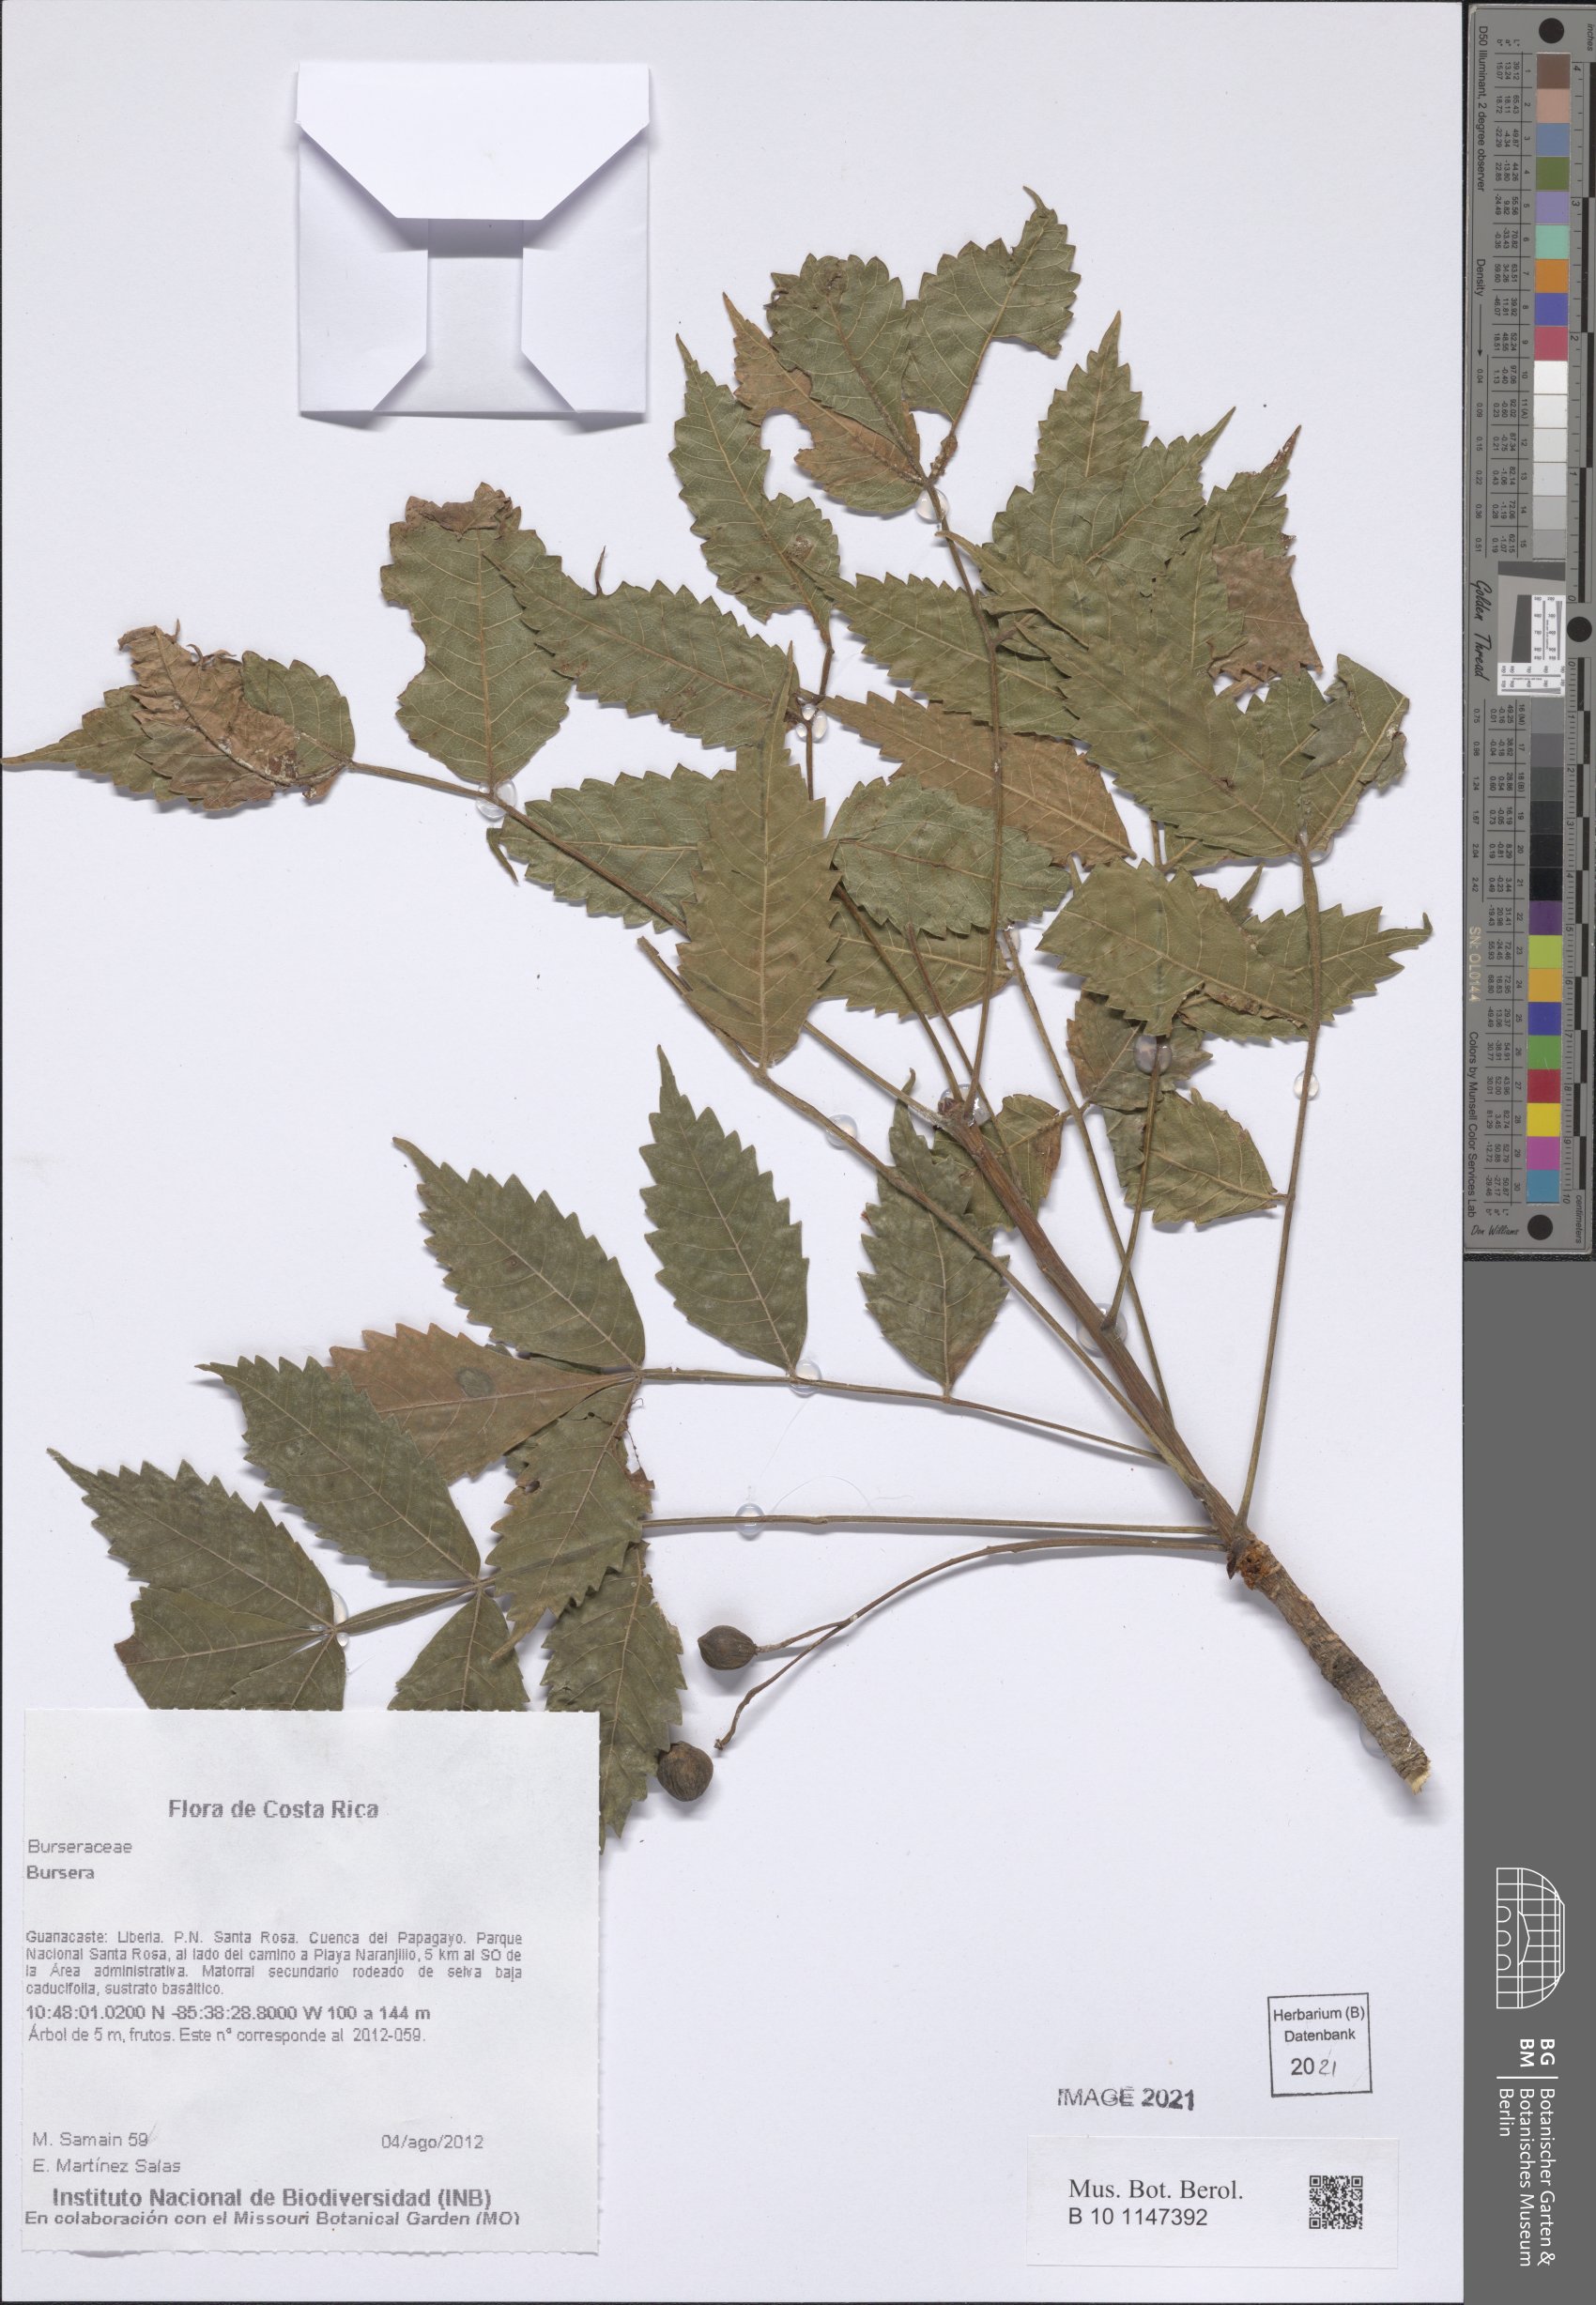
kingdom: Plantae
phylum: Tracheophyta
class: Magnoliopsida
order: Sapindales
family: Burseraceae
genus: Bursera
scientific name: Bursera
